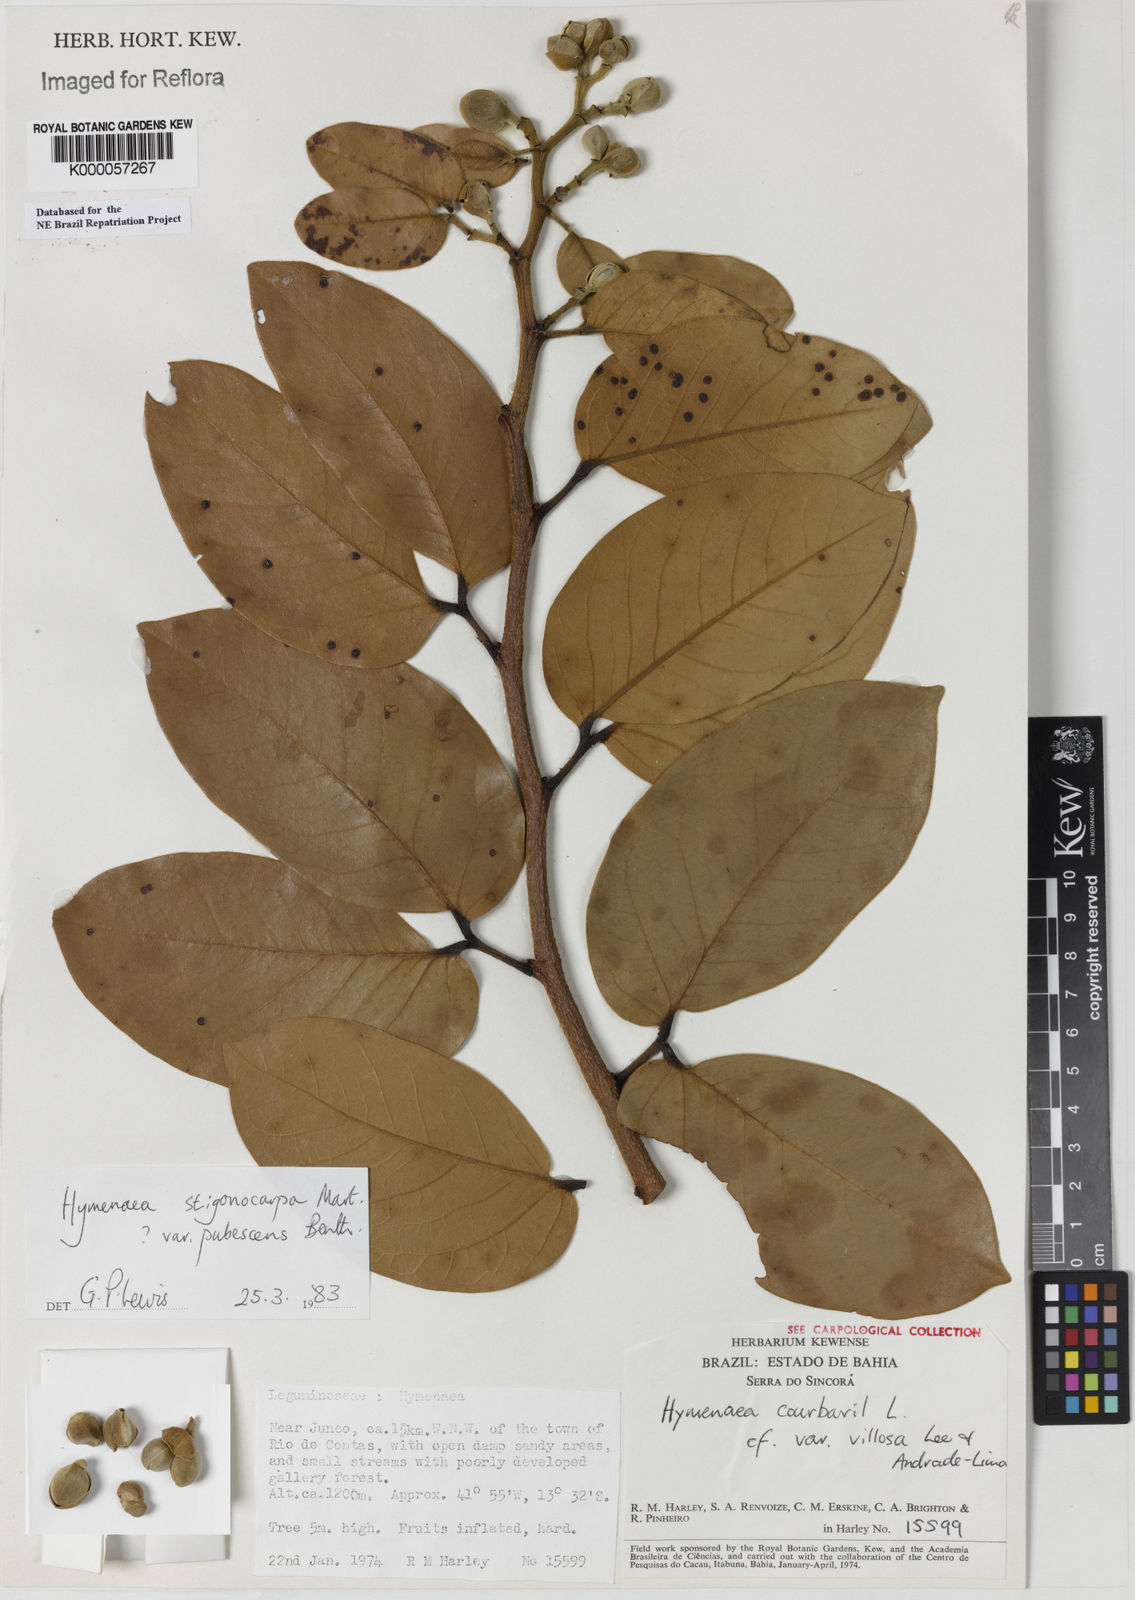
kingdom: Plantae
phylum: Tracheophyta
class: Magnoliopsida
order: Fabales
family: Fabaceae
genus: Hymenaea
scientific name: Hymenaea stigonocarpa
